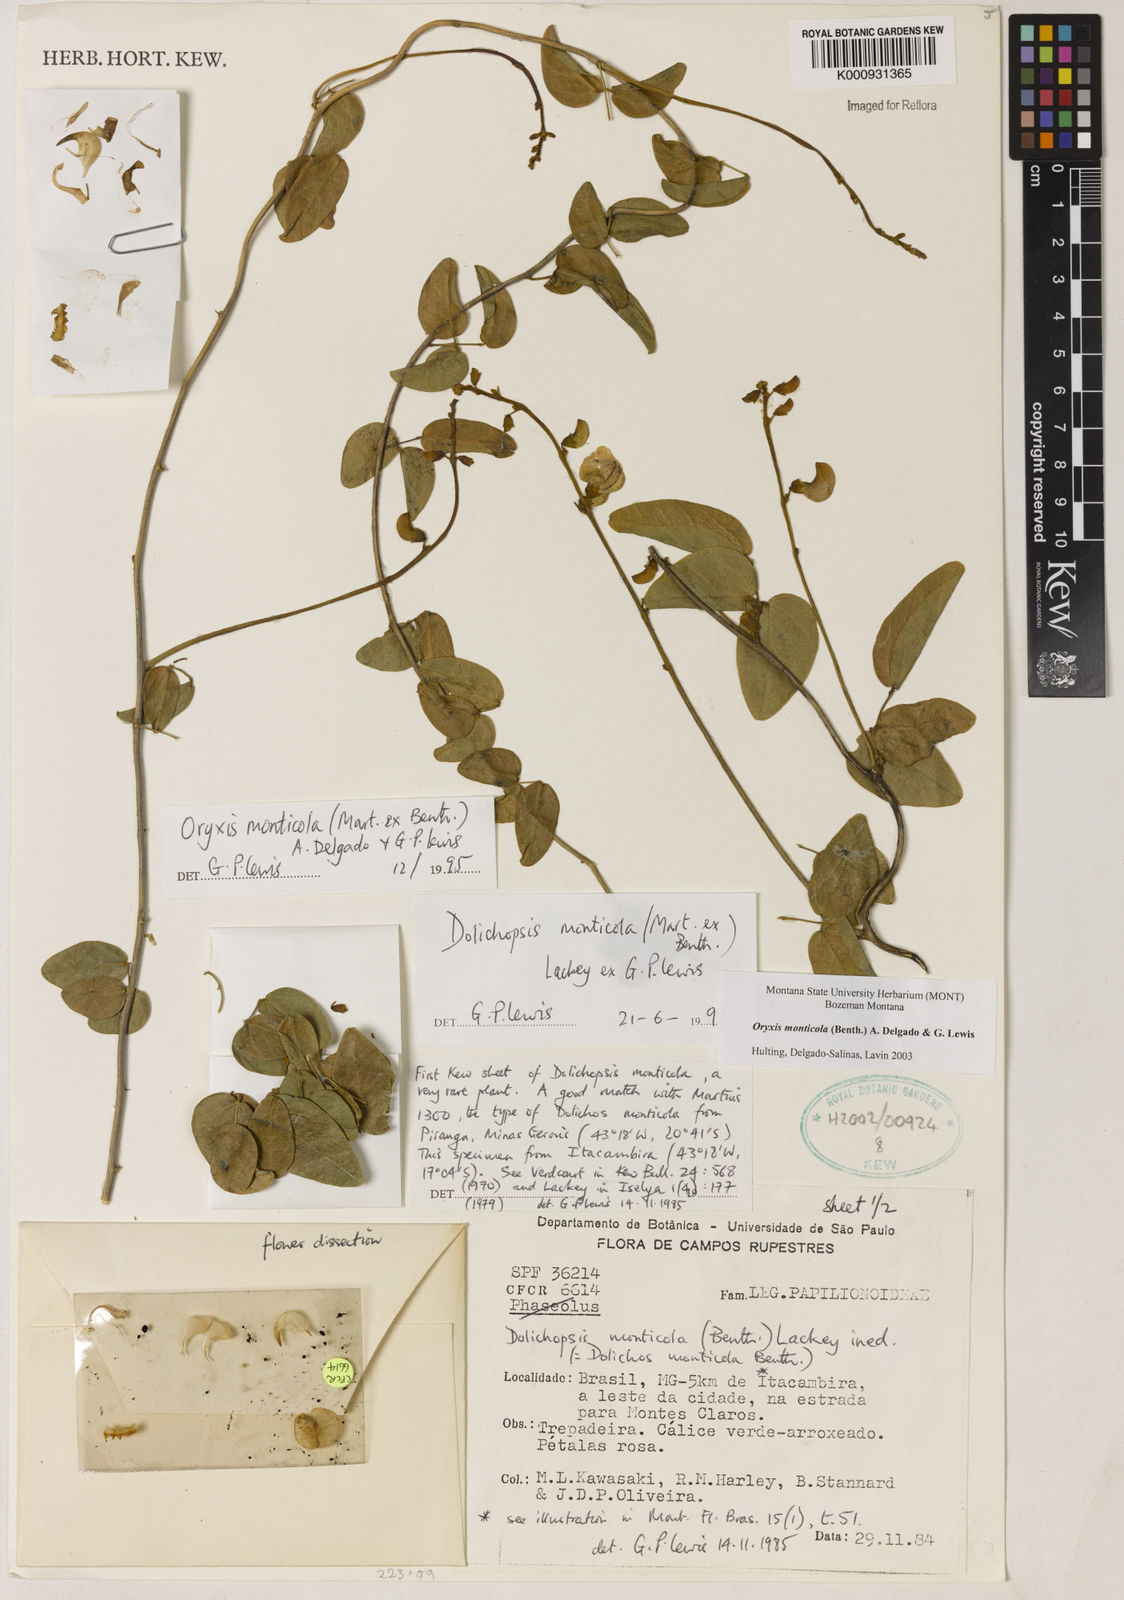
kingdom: Plantae
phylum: Tracheophyta
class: Magnoliopsida
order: Fabales
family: Fabaceae
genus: Dolichopsis
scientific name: Dolichopsis monticola
